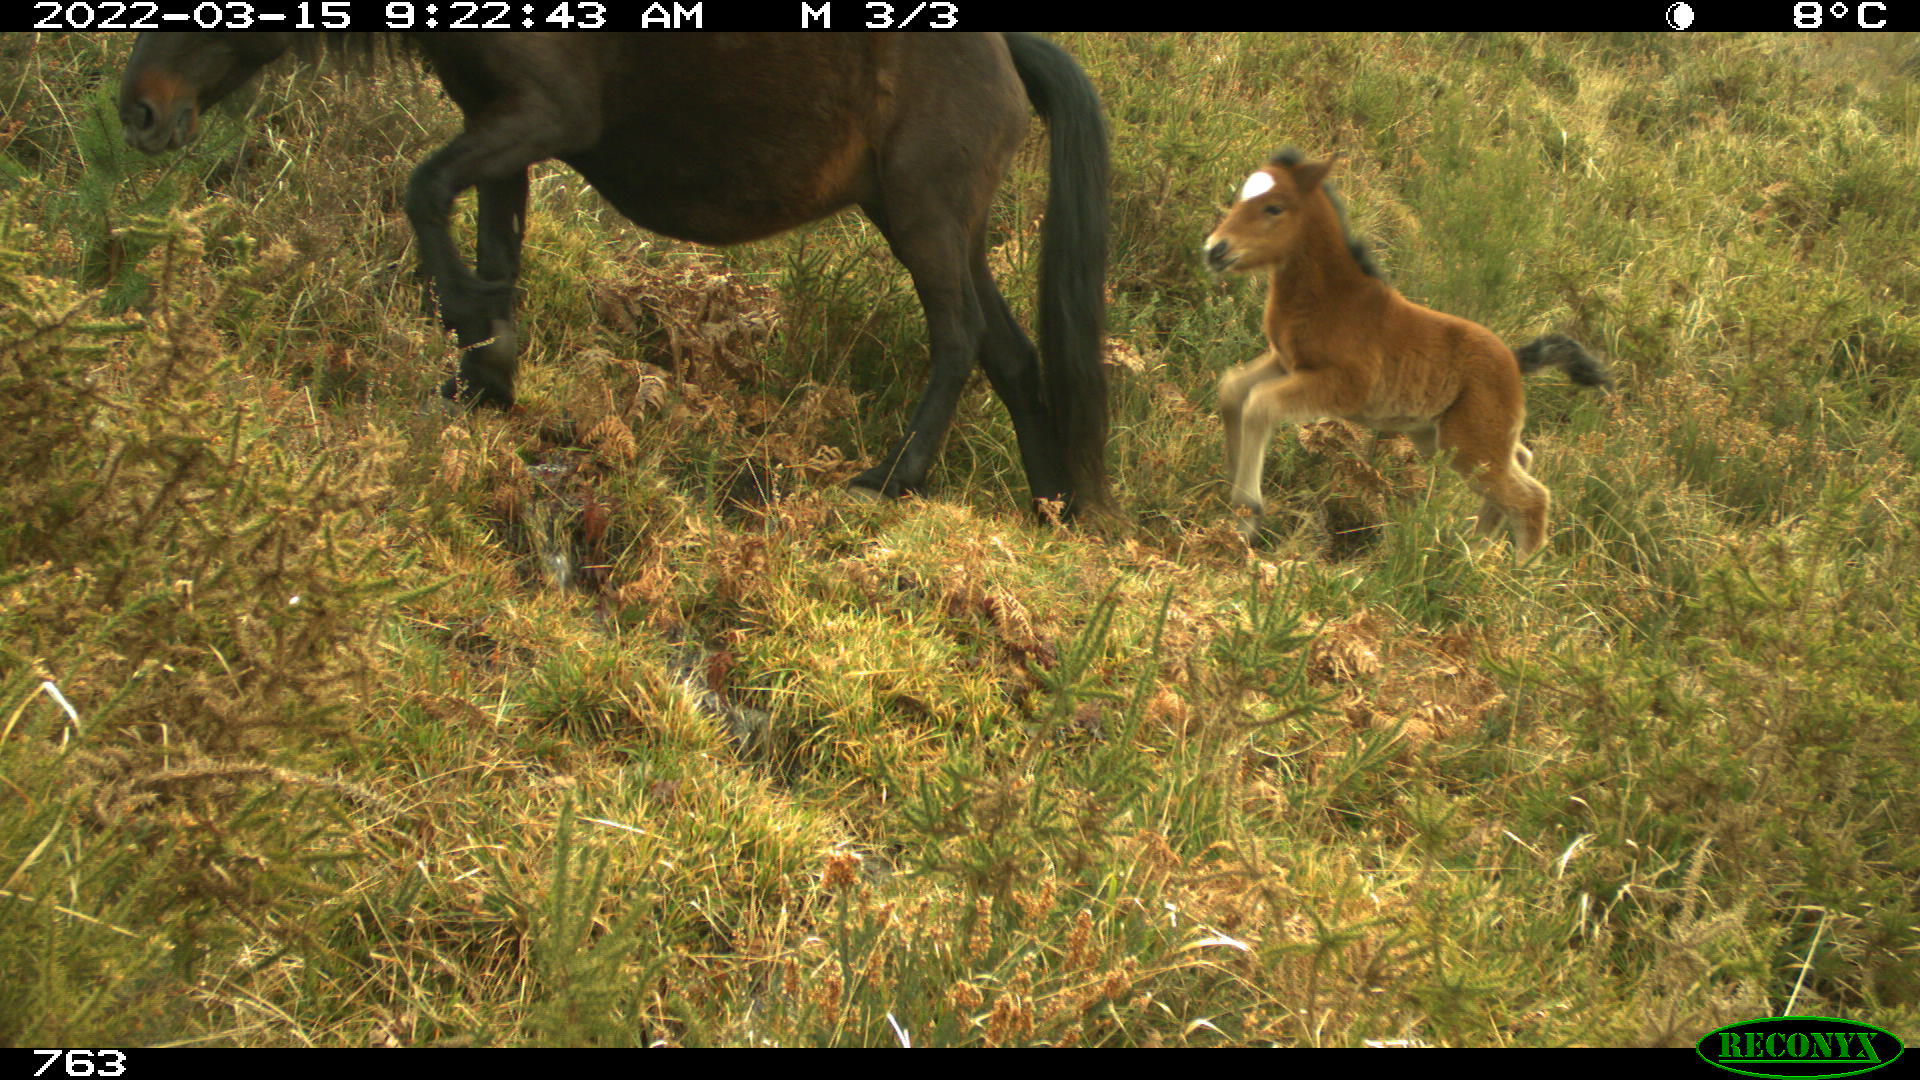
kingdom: Animalia
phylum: Chordata
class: Mammalia
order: Perissodactyla
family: Equidae
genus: Equus
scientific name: Equus caballus
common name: Horse
